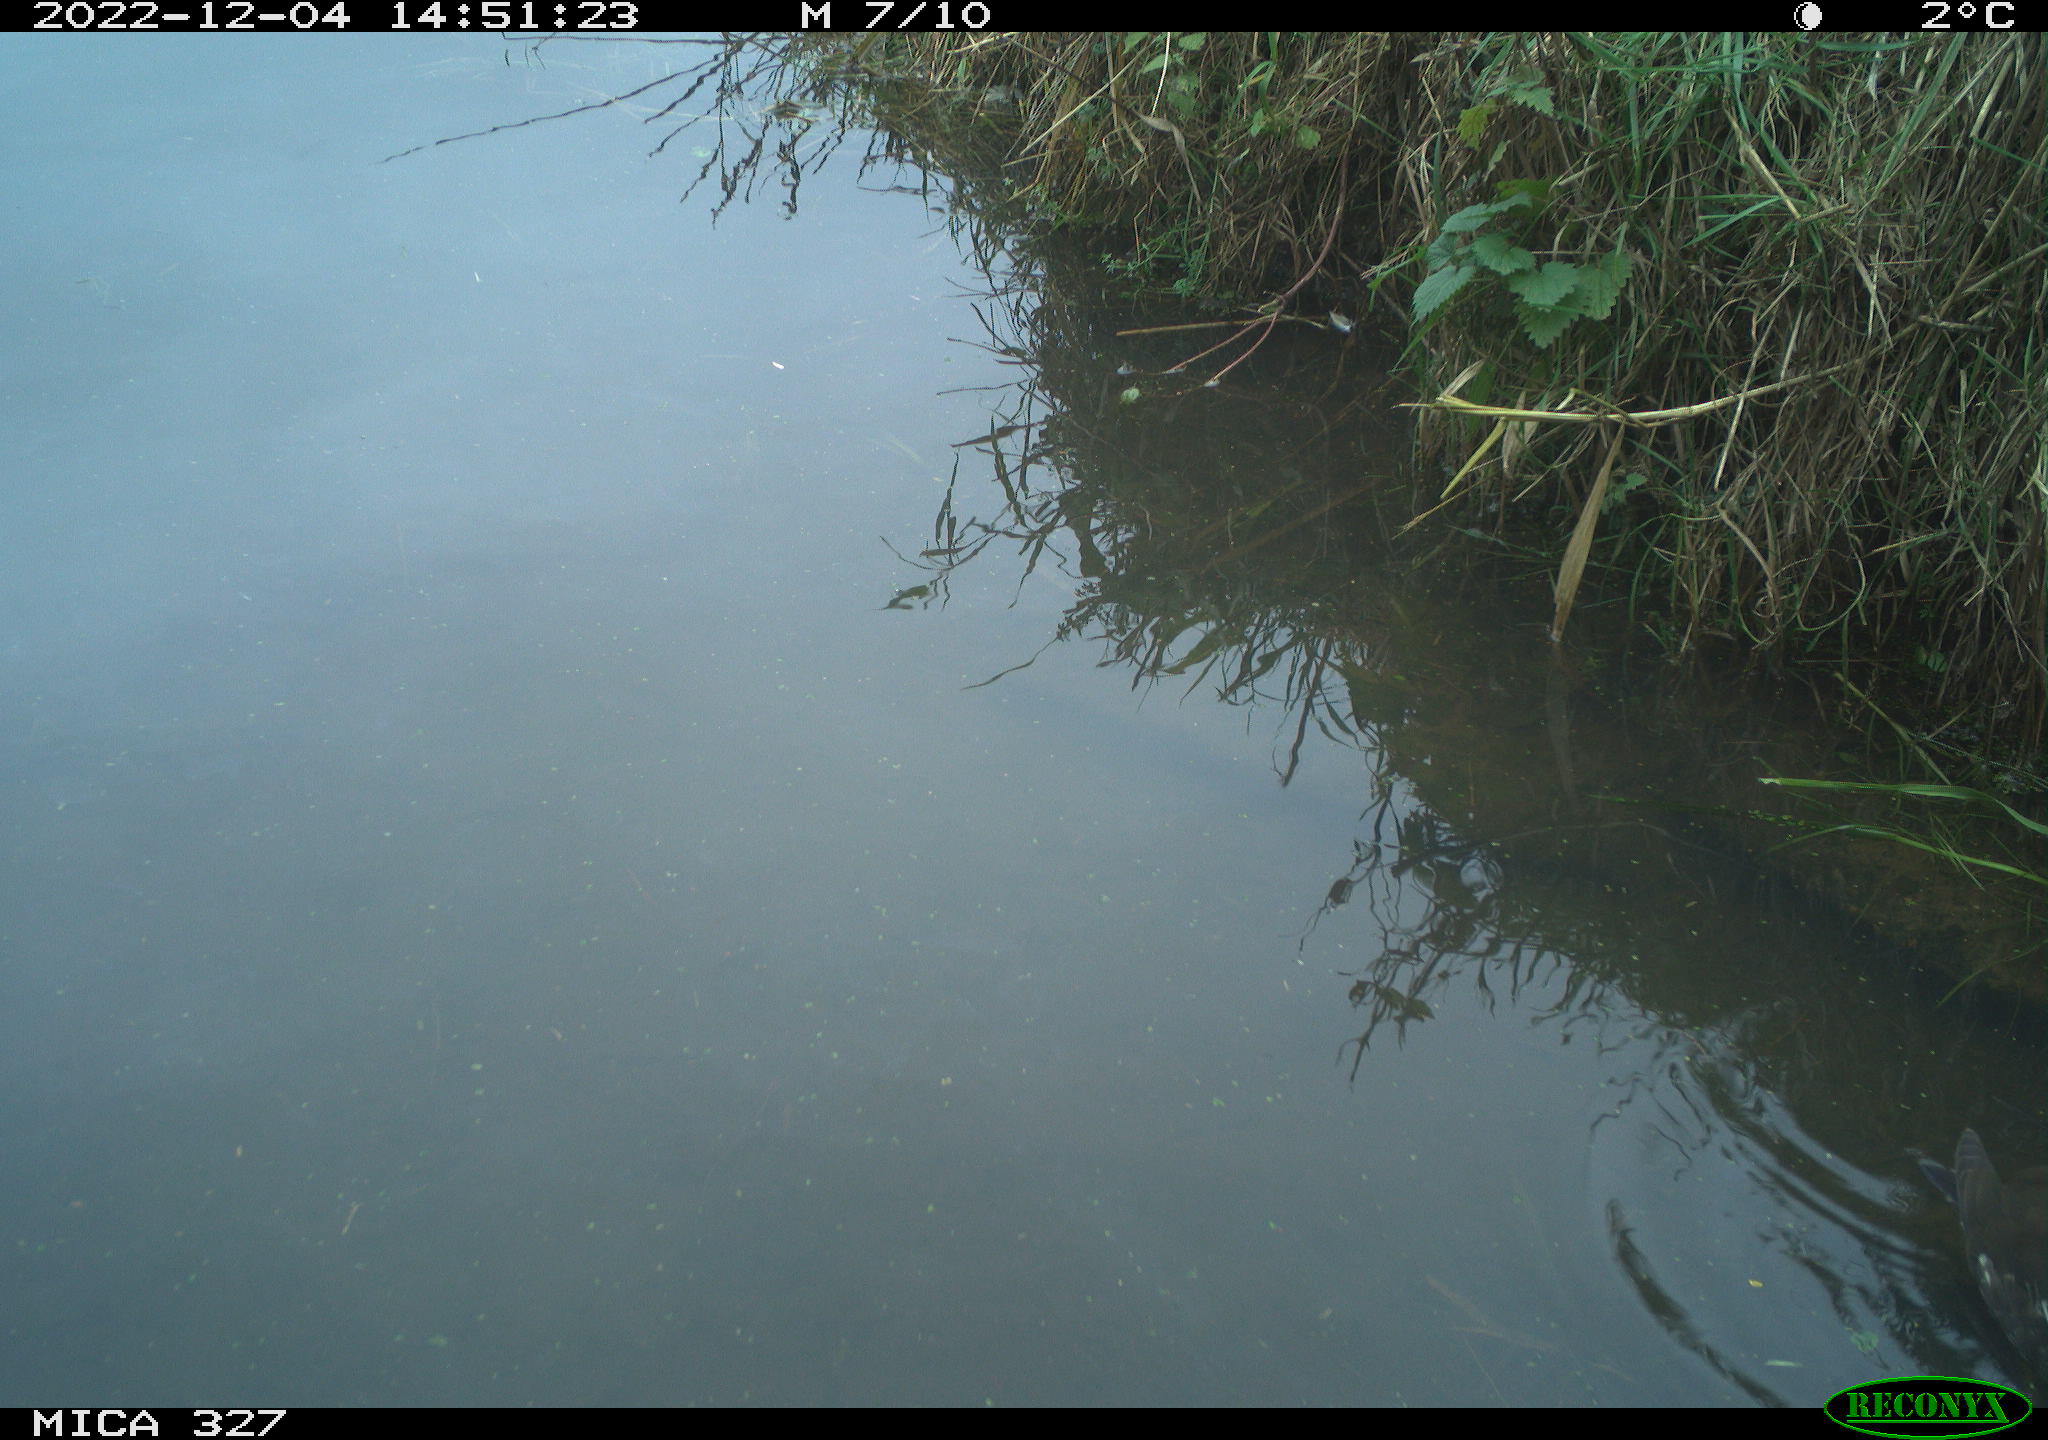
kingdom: Animalia
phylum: Chordata
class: Aves
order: Gruiformes
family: Rallidae
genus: Gallinula
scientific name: Gallinula chloropus
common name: Common moorhen
